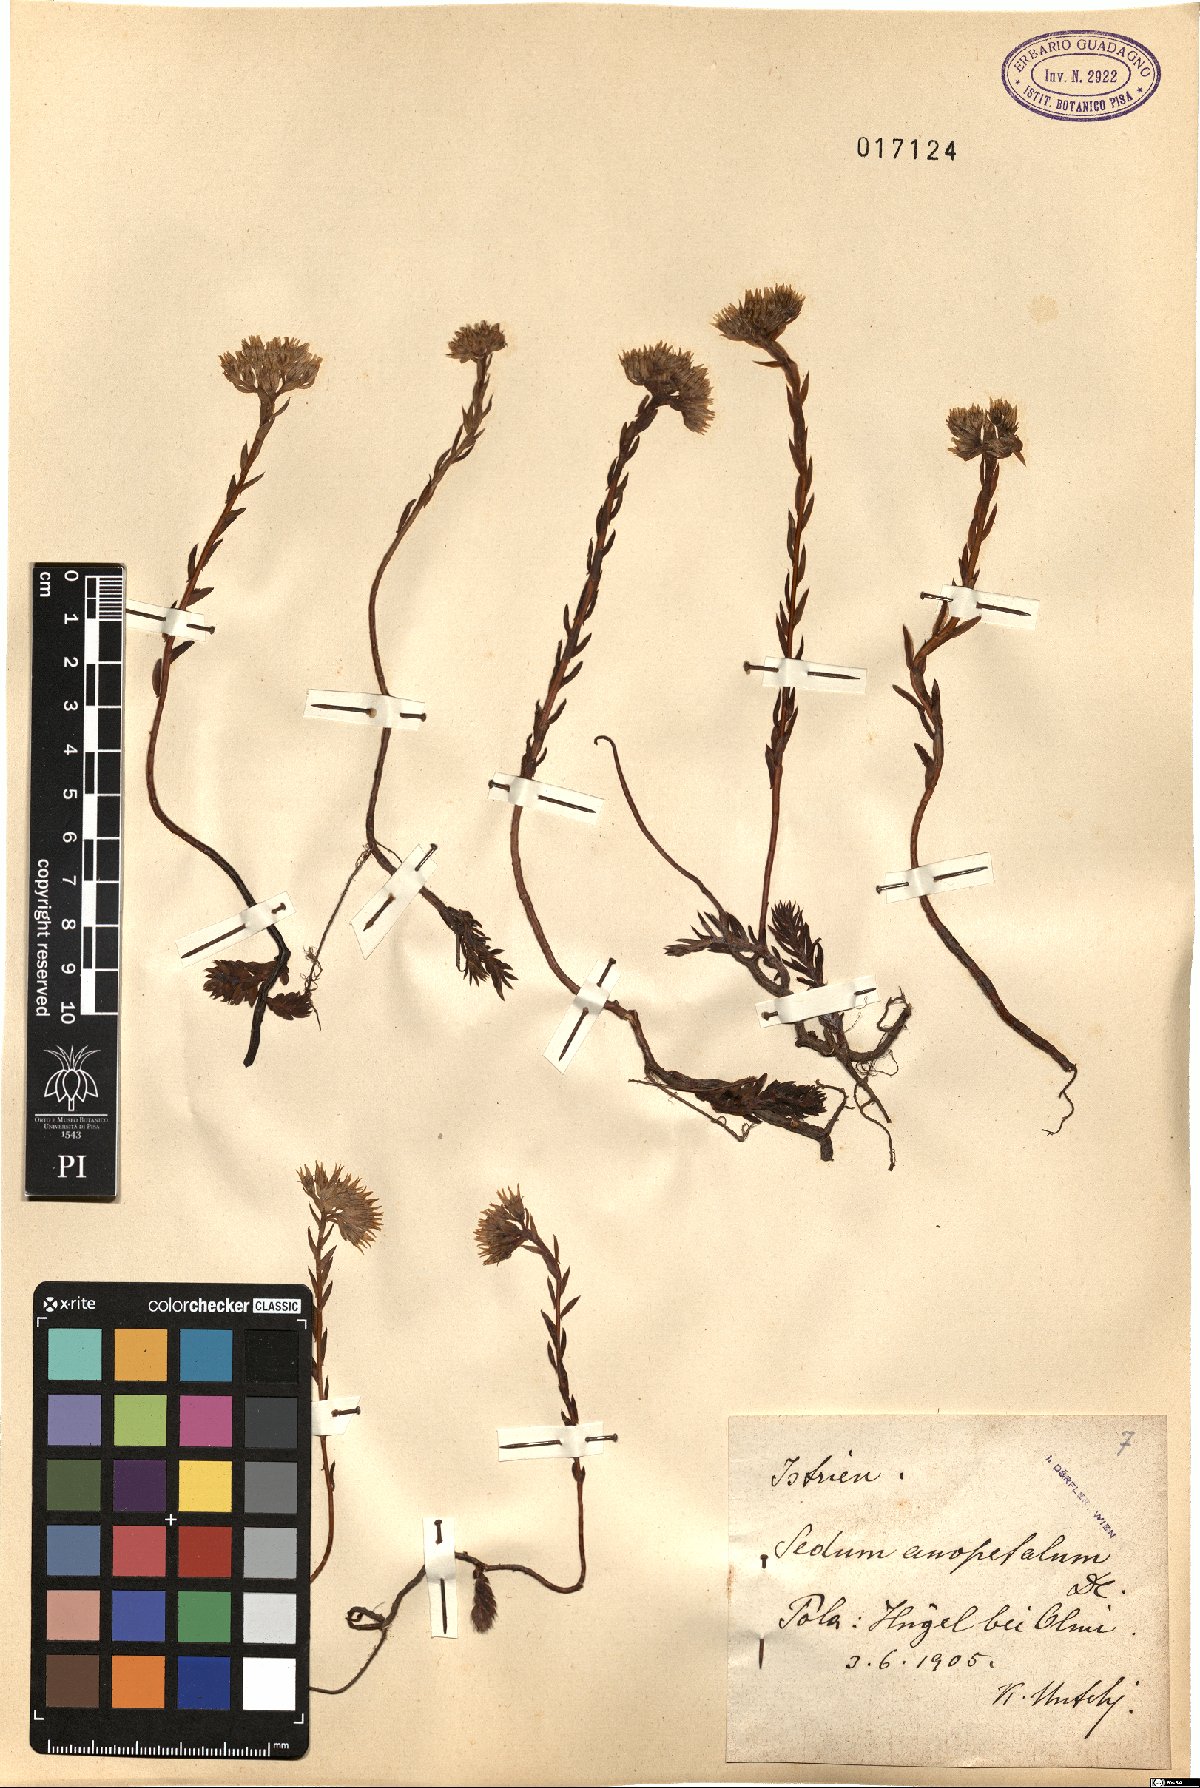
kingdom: Plantae
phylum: Tracheophyta
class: Magnoliopsida
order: Saxifragales
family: Crassulaceae
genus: Petrosedum
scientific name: Petrosedum
